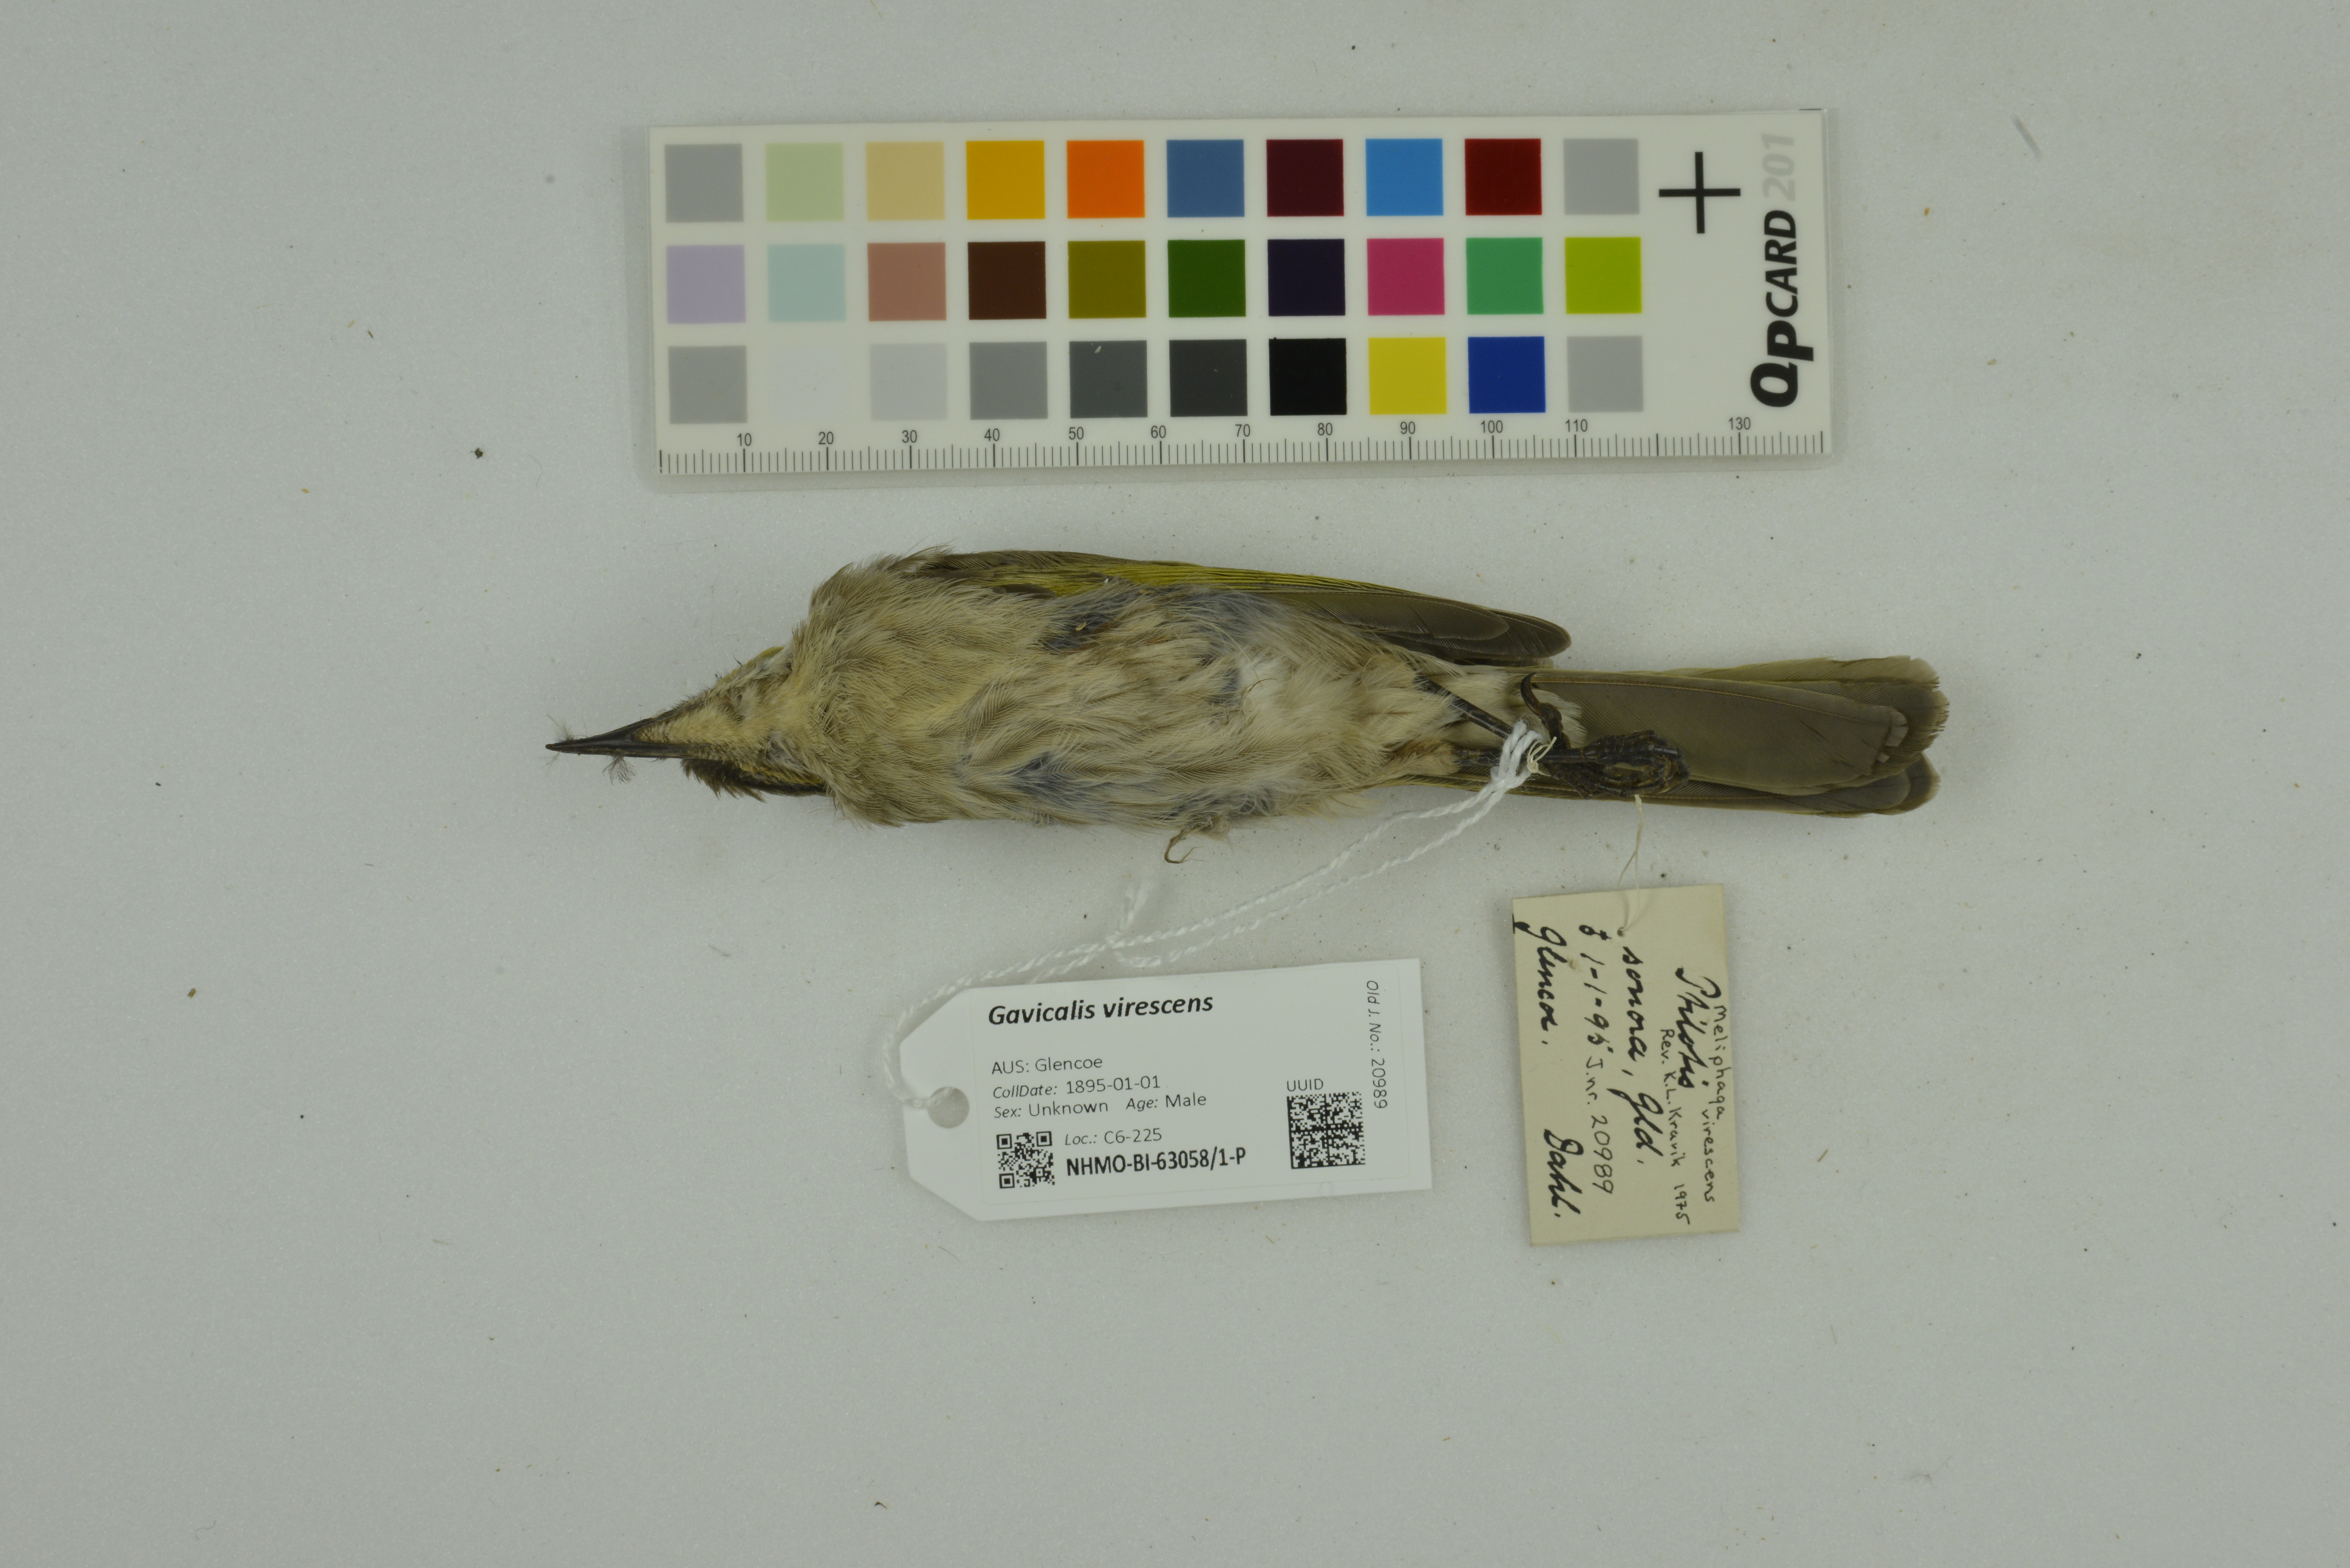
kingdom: Animalia
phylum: Chordata
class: Aves
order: Passeriformes
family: Meliphagidae
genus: Gavicalis
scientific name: Gavicalis virescens
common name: Singing honeyeater
